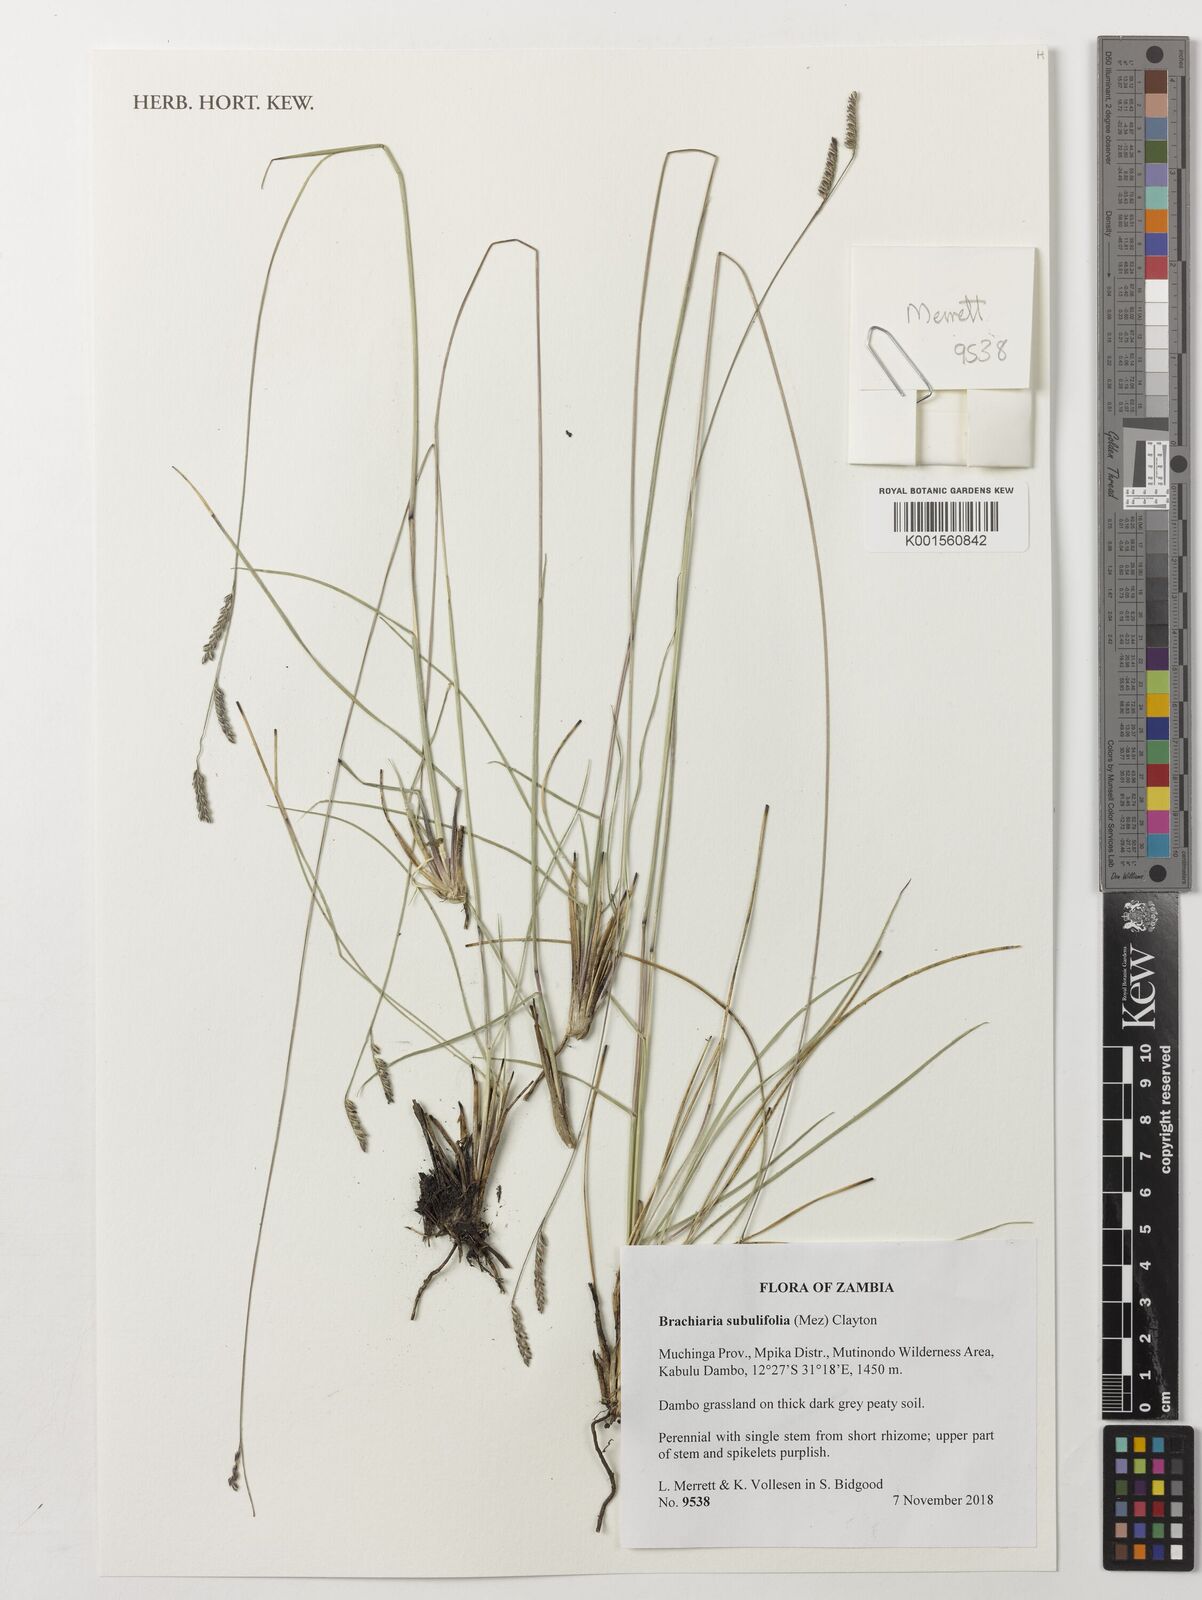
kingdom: Plantae
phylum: Tracheophyta
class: Liliopsida
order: Poales
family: Poaceae
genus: Urochloa
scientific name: Urochloa subulifolia
